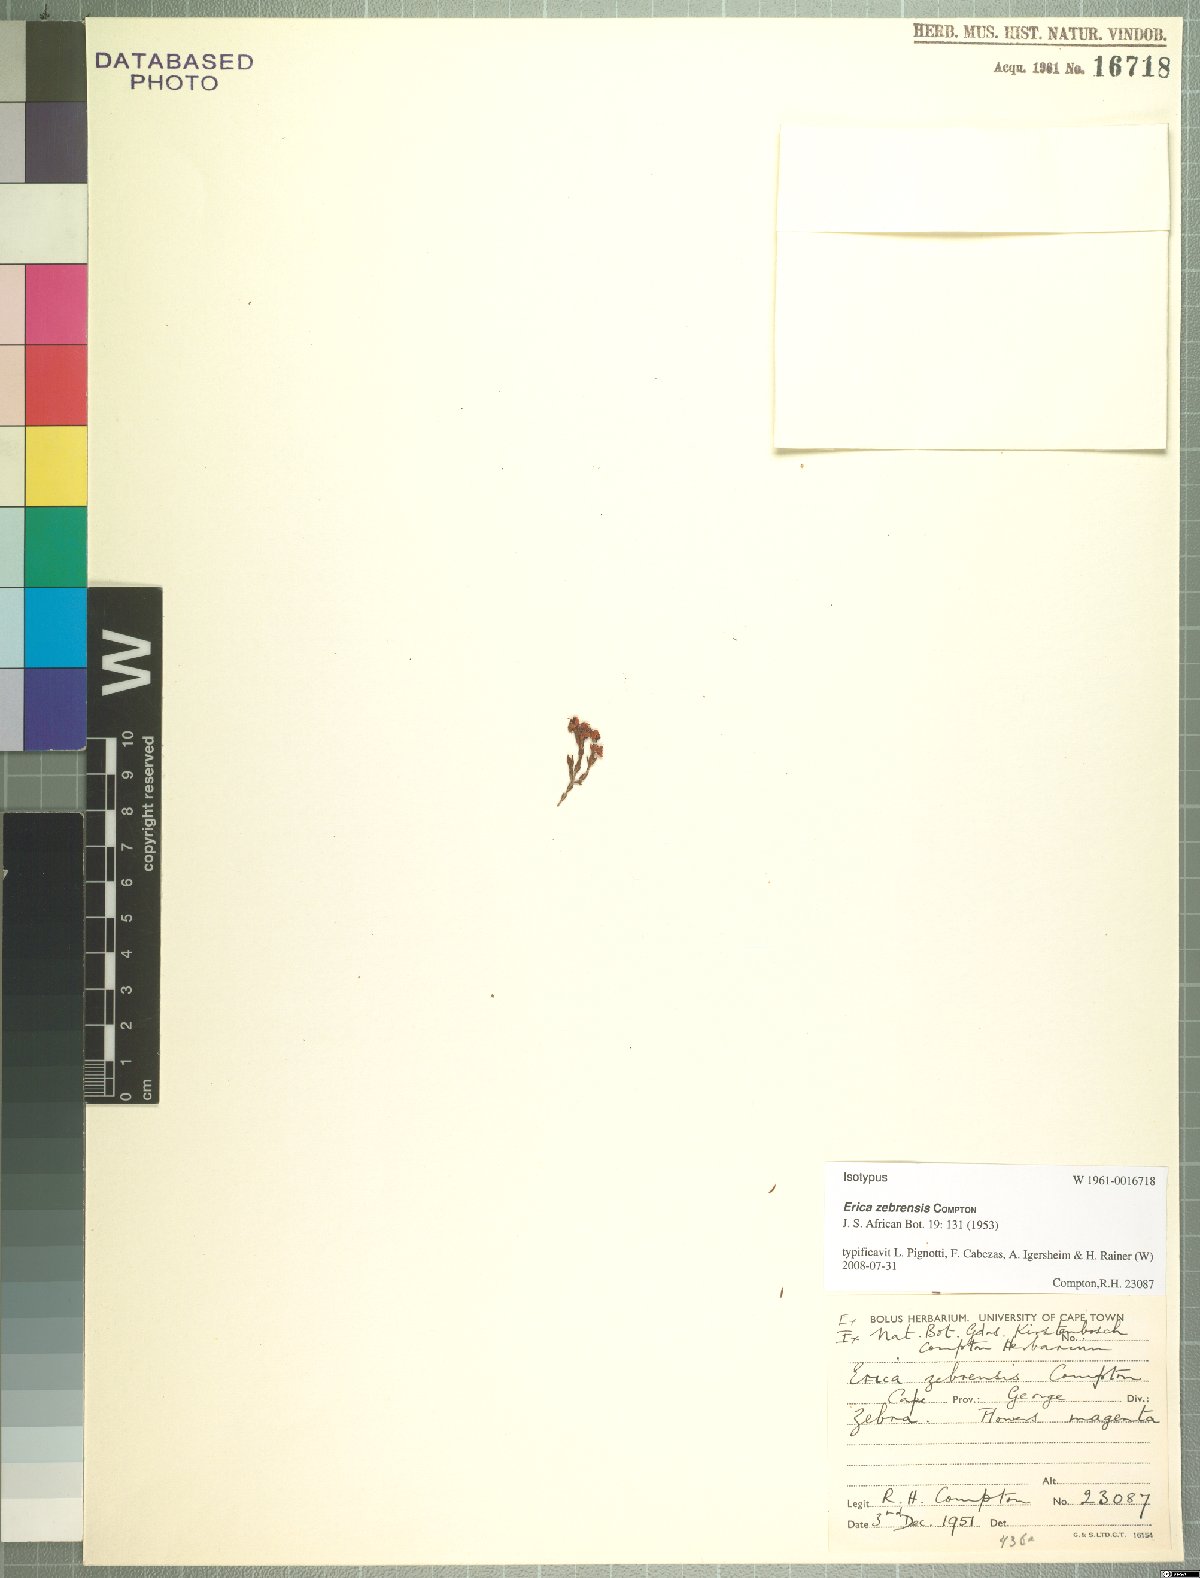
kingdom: Plantae
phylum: Tracheophyta
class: Magnoliopsida
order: Ericales
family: Ericaceae
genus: Erica
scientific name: Erica zebrensis
